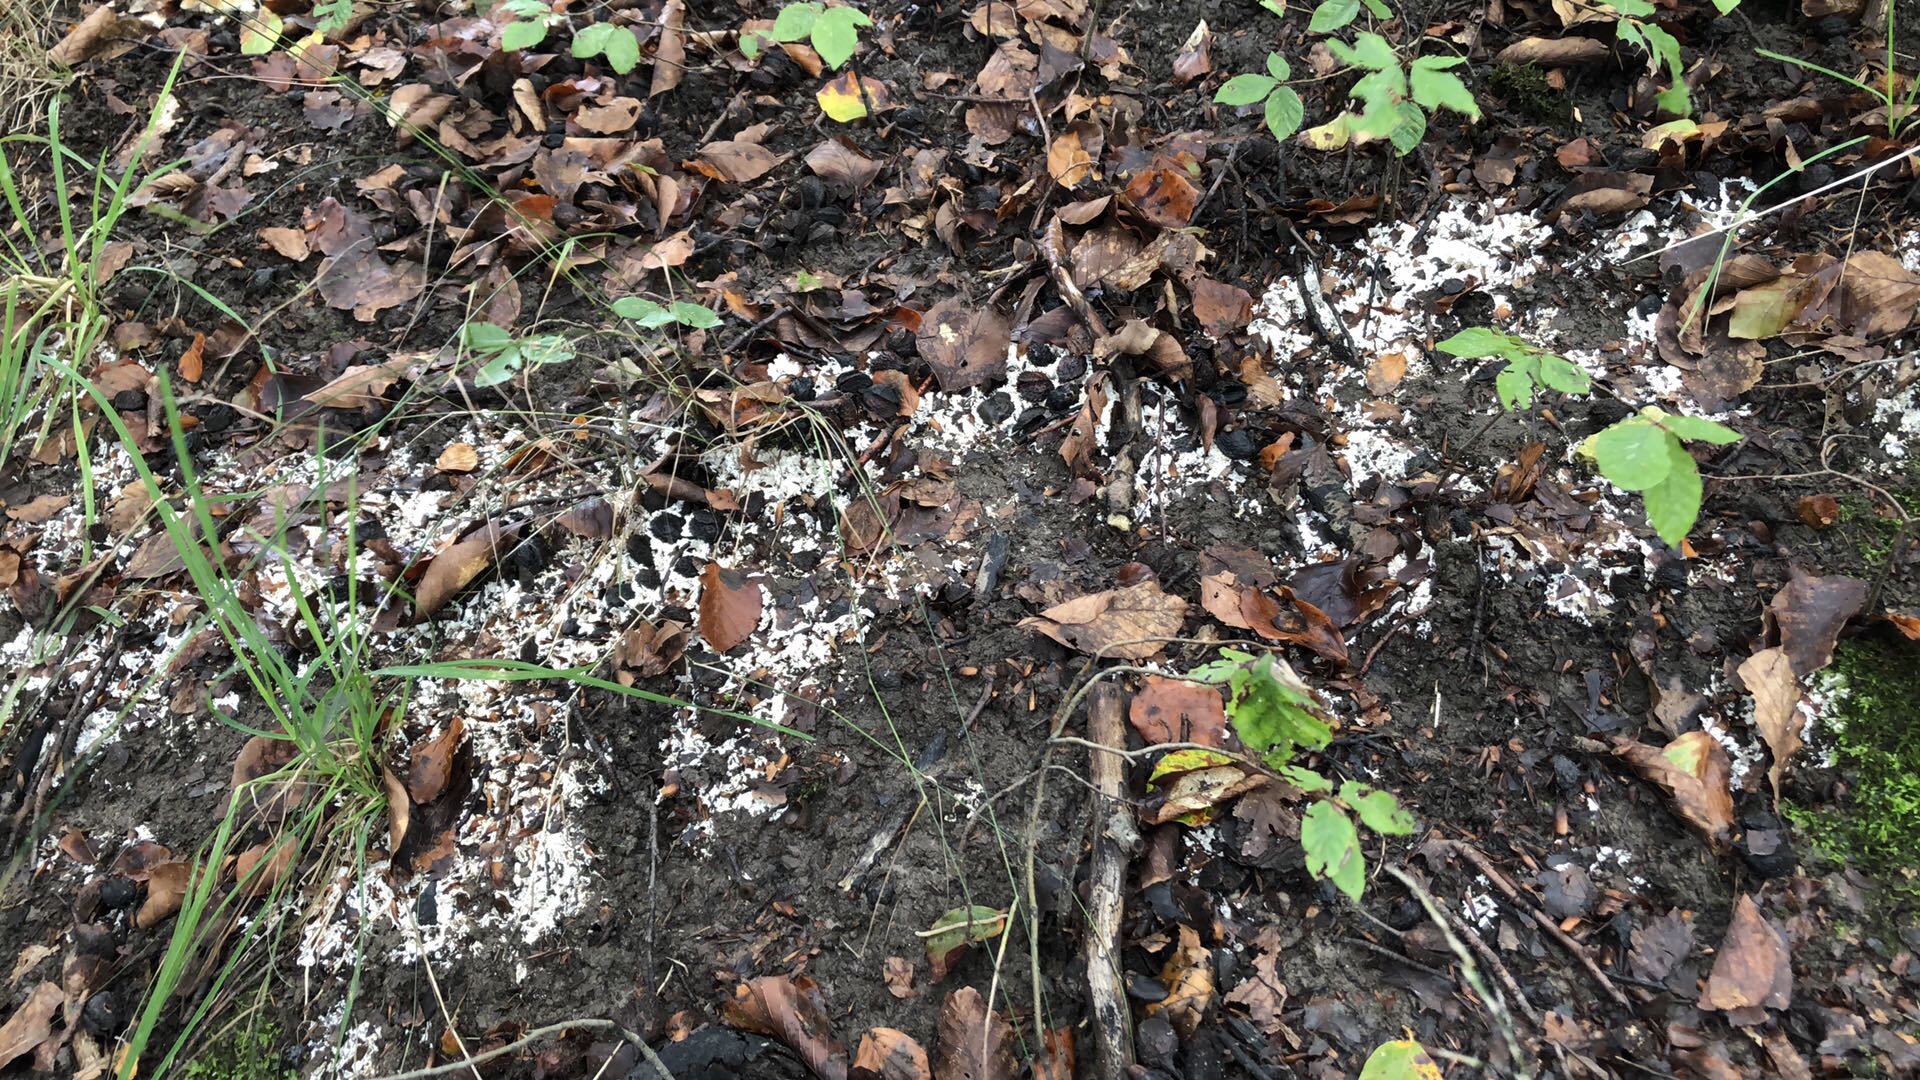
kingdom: Fungi
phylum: Basidiomycota
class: Agaricomycetes
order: Trechisporales
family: Sistotremataceae
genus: Trechispora
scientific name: Trechispora fastidiosa
